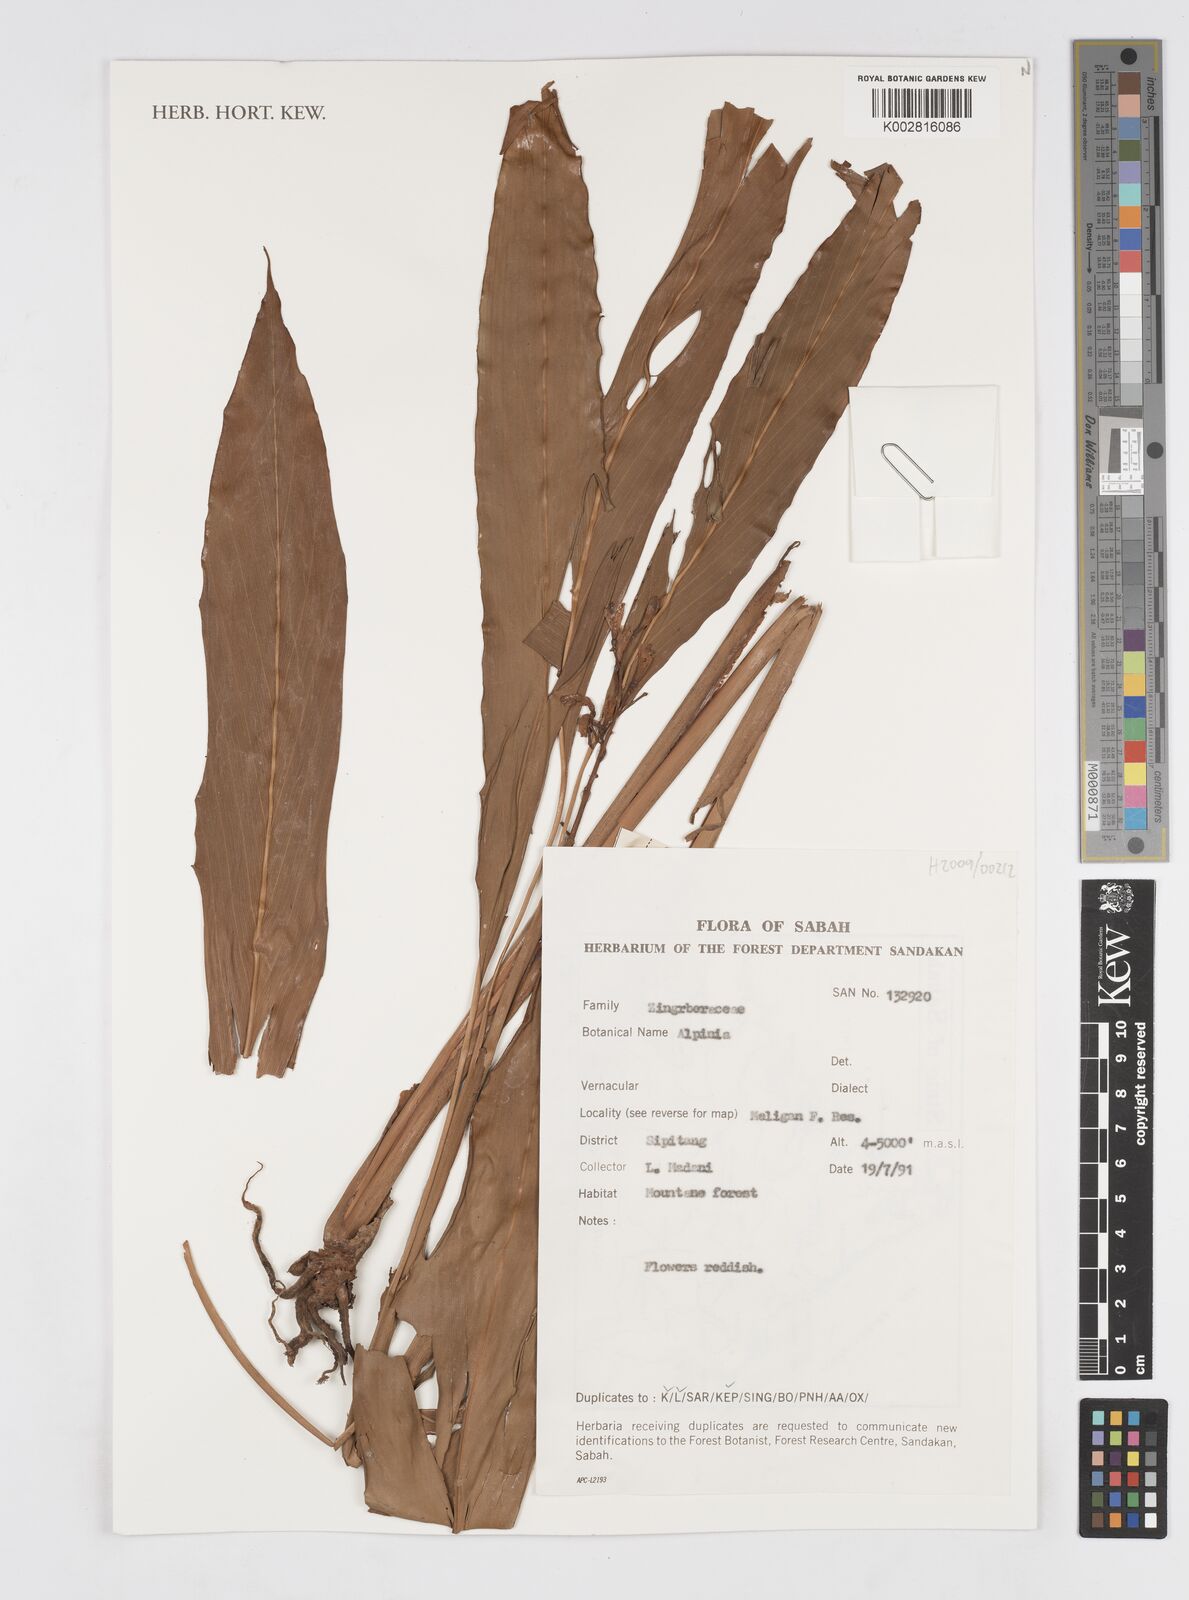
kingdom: Plantae
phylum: Tracheophyta
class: Liliopsida
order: Zingiberales
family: Zingiberaceae
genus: Alpinia
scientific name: Alpinia
